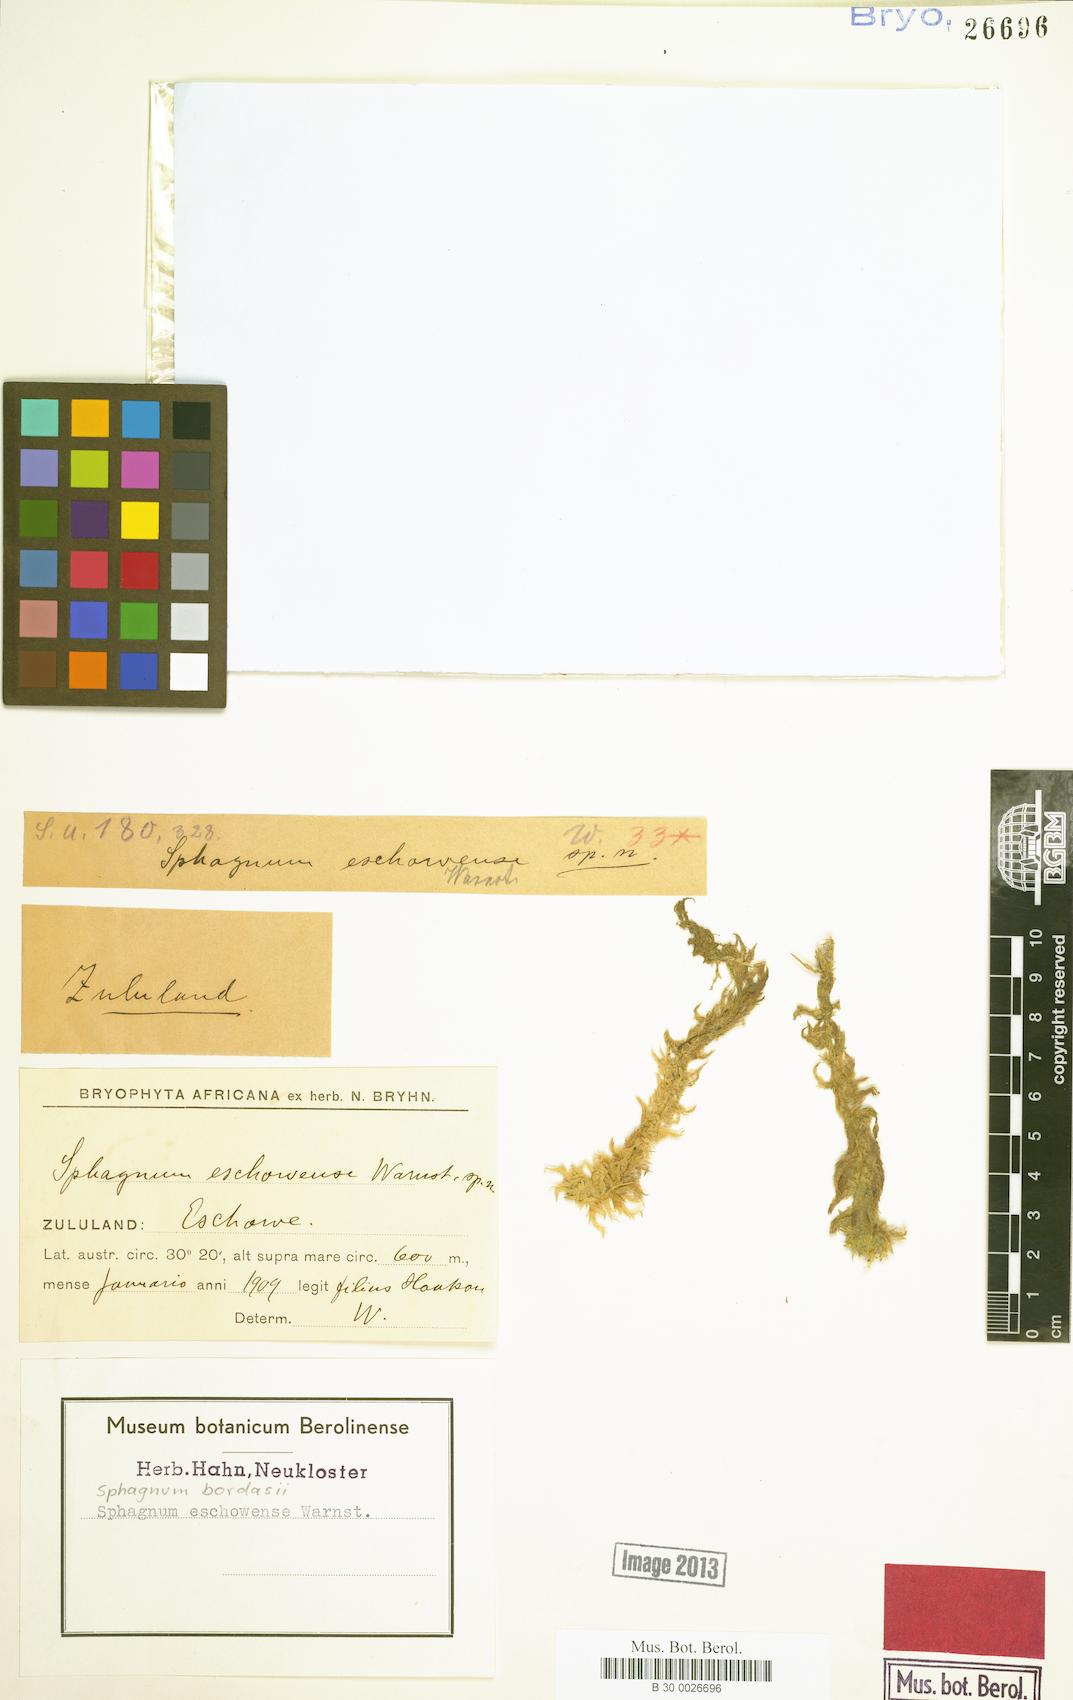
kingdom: Plantae
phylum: Bryophyta
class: Sphagnopsida
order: Sphagnales
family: Sphagnaceae
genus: Sphagnum
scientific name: Sphagnum truncatum
